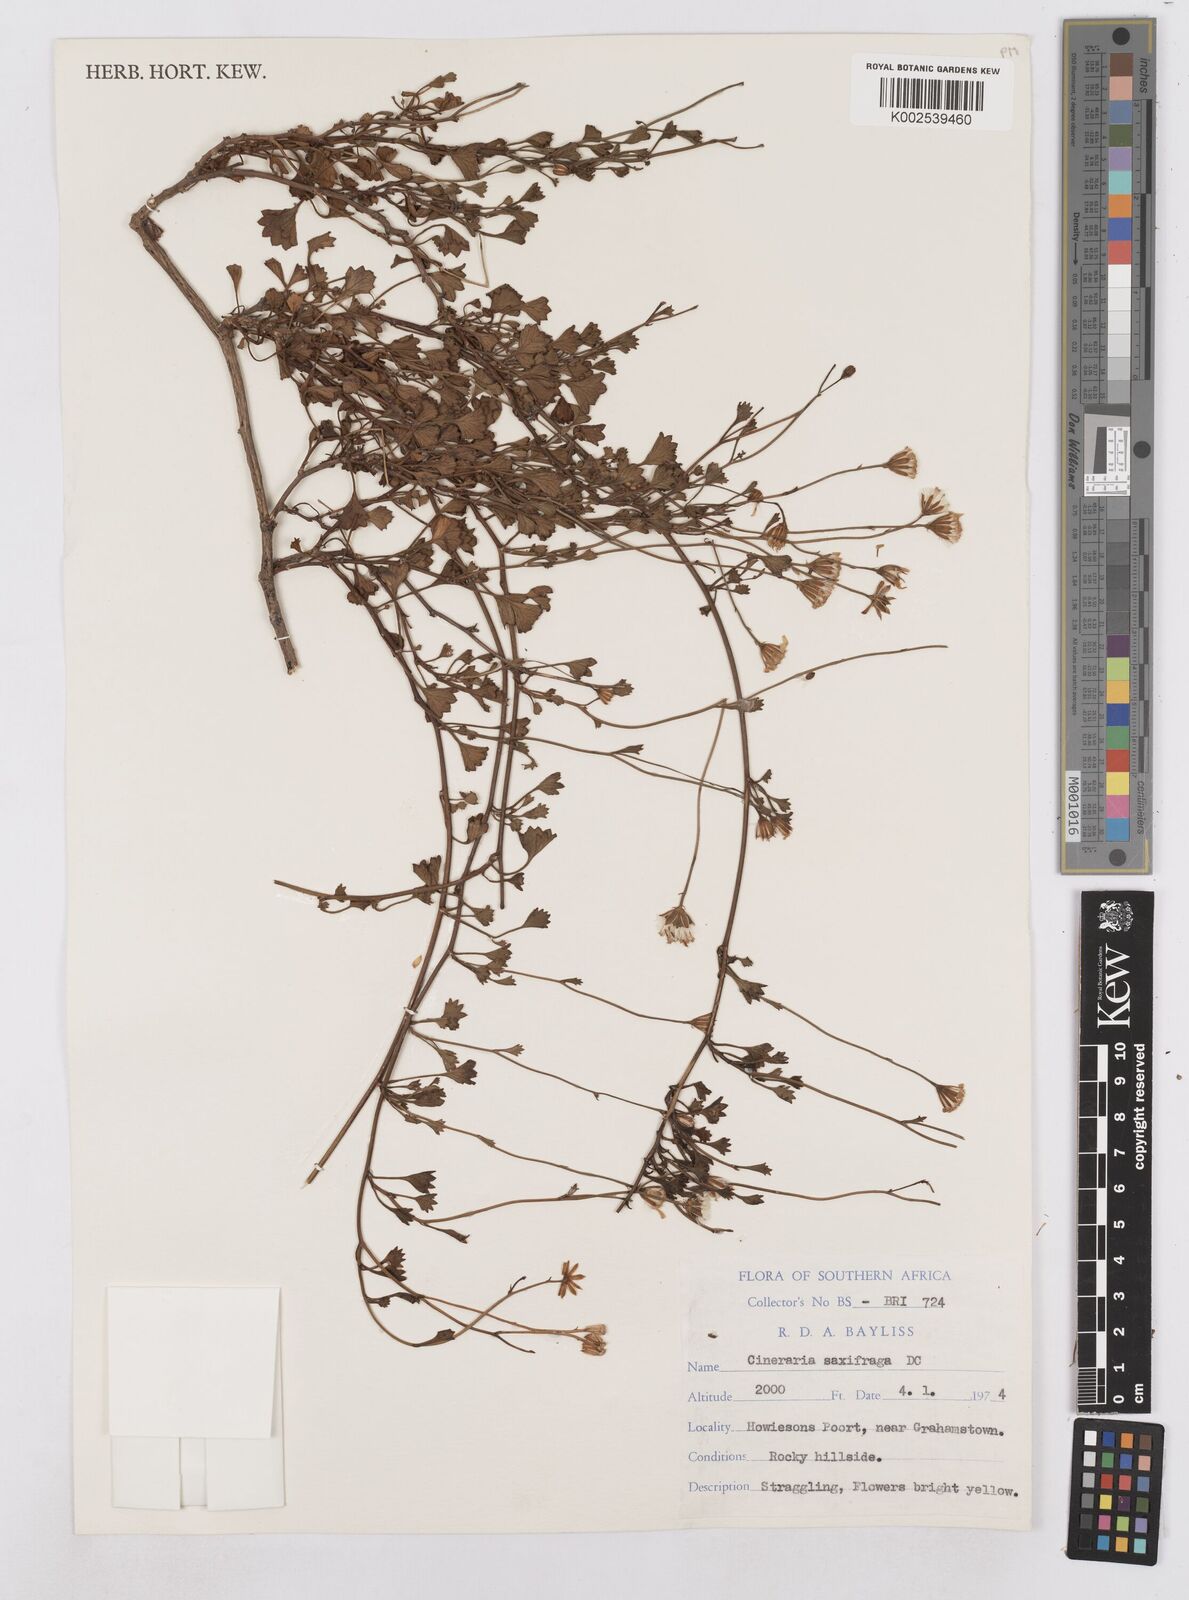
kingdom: Plantae
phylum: Tracheophyta
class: Magnoliopsida
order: Asterales
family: Asteraceae
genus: Cineraria
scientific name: Cineraria saxifraga
